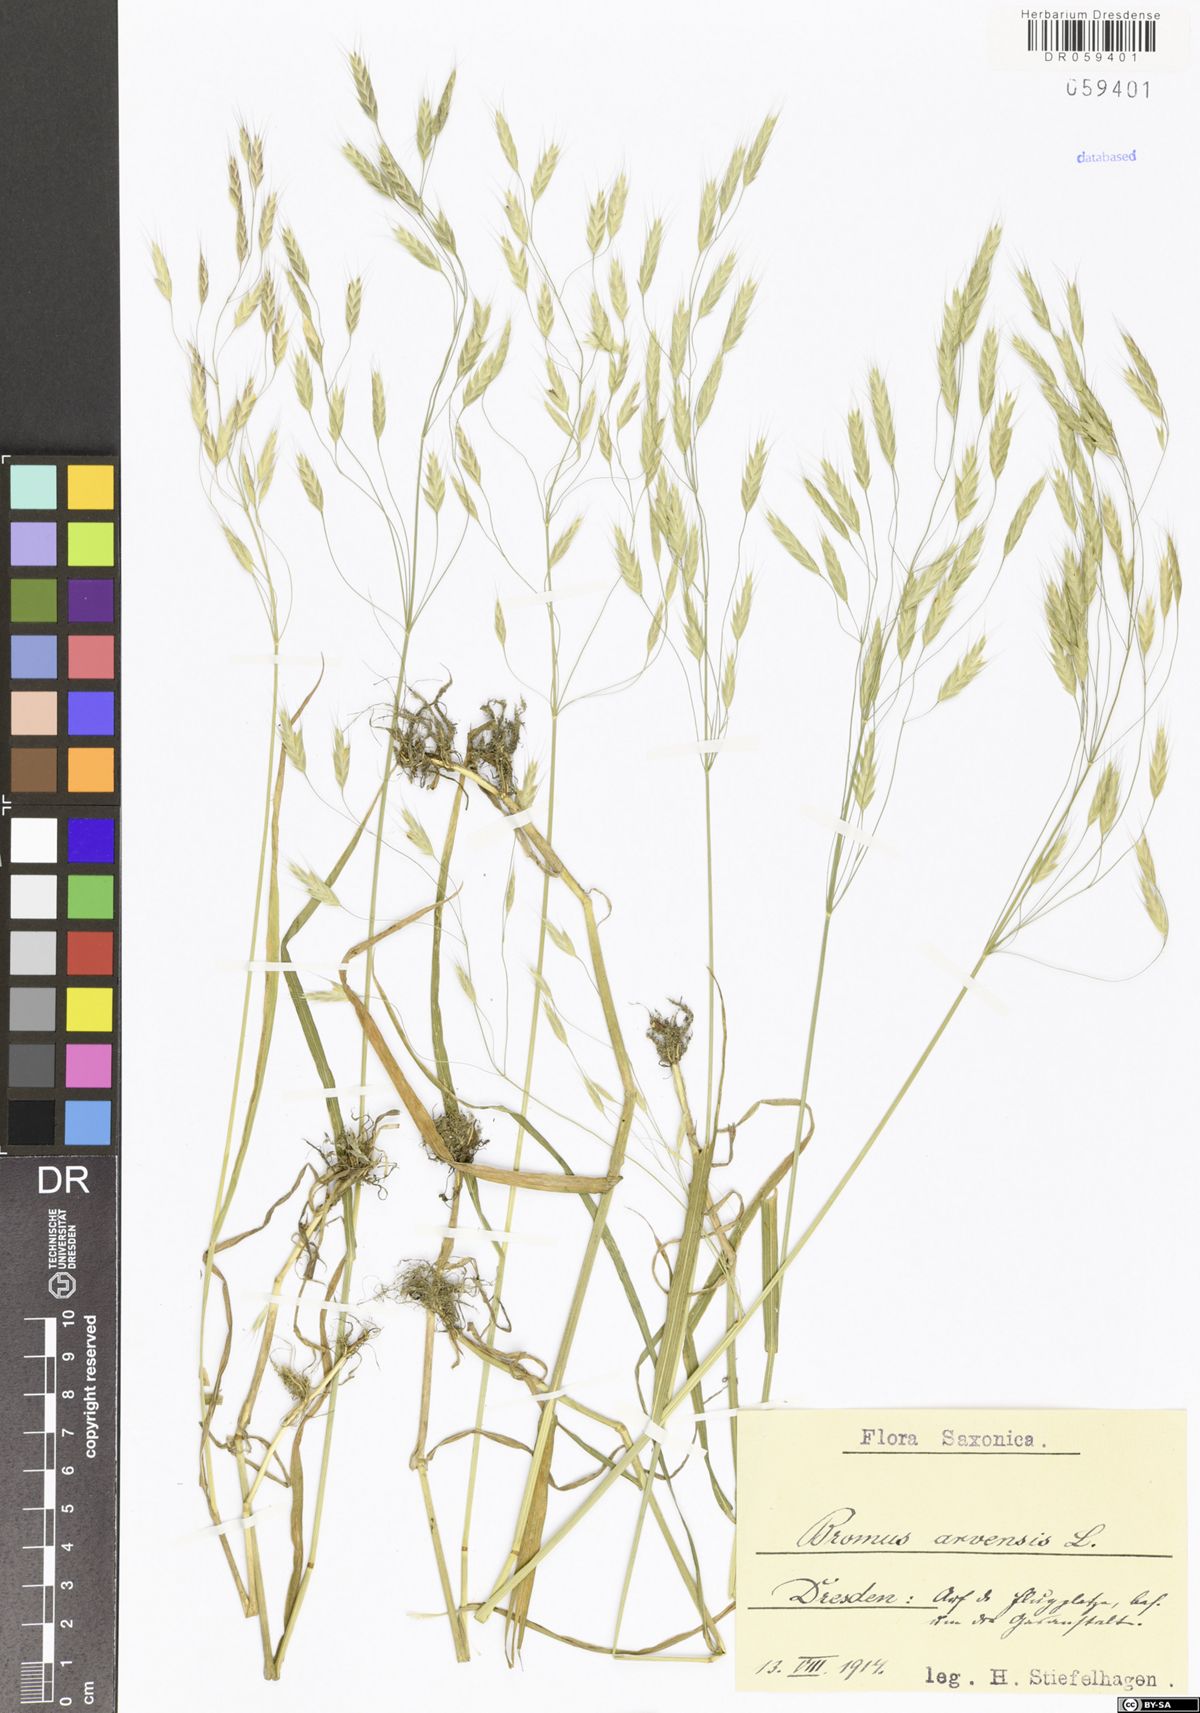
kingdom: Plantae
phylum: Tracheophyta
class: Liliopsida
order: Poales
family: Poaceae
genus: Bromus
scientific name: Bromus arvensis
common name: Field brome
